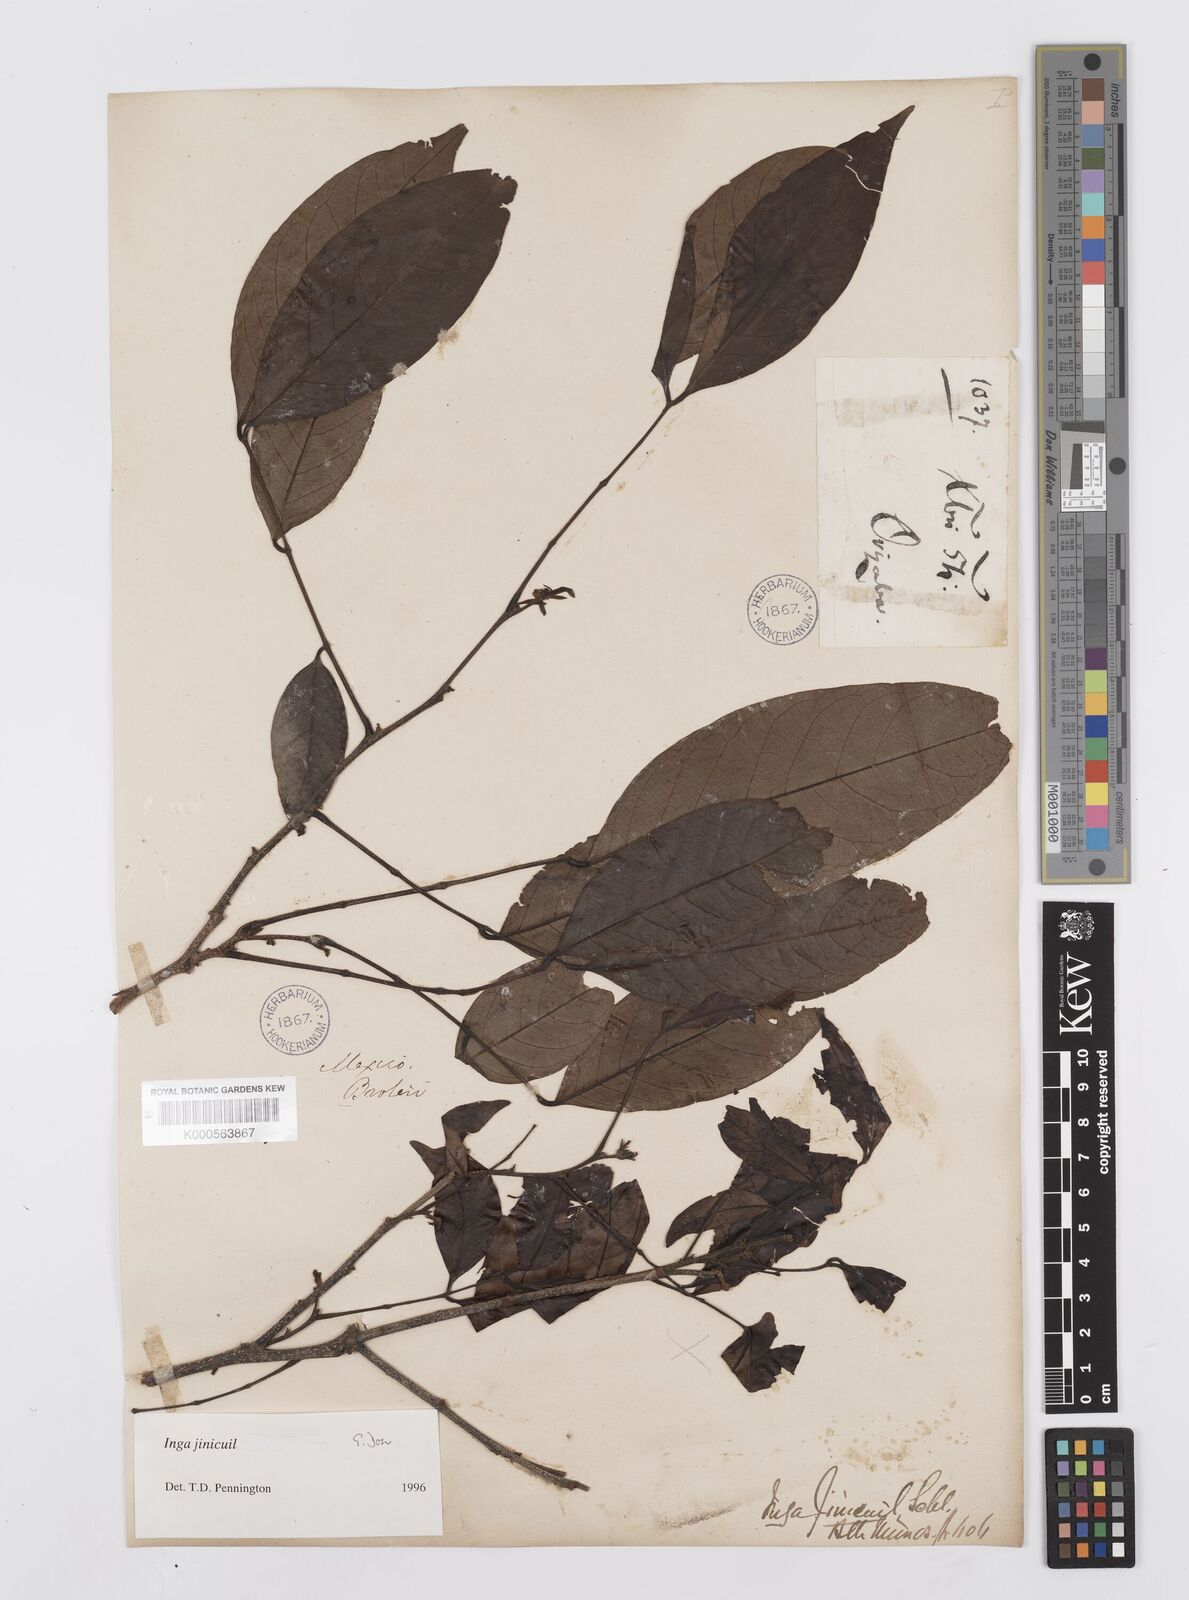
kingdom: Plantae
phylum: Tracheophyta
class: Magnoliopsida
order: Fabales
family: Fabaceae
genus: Inga
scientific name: Inga inicuil
